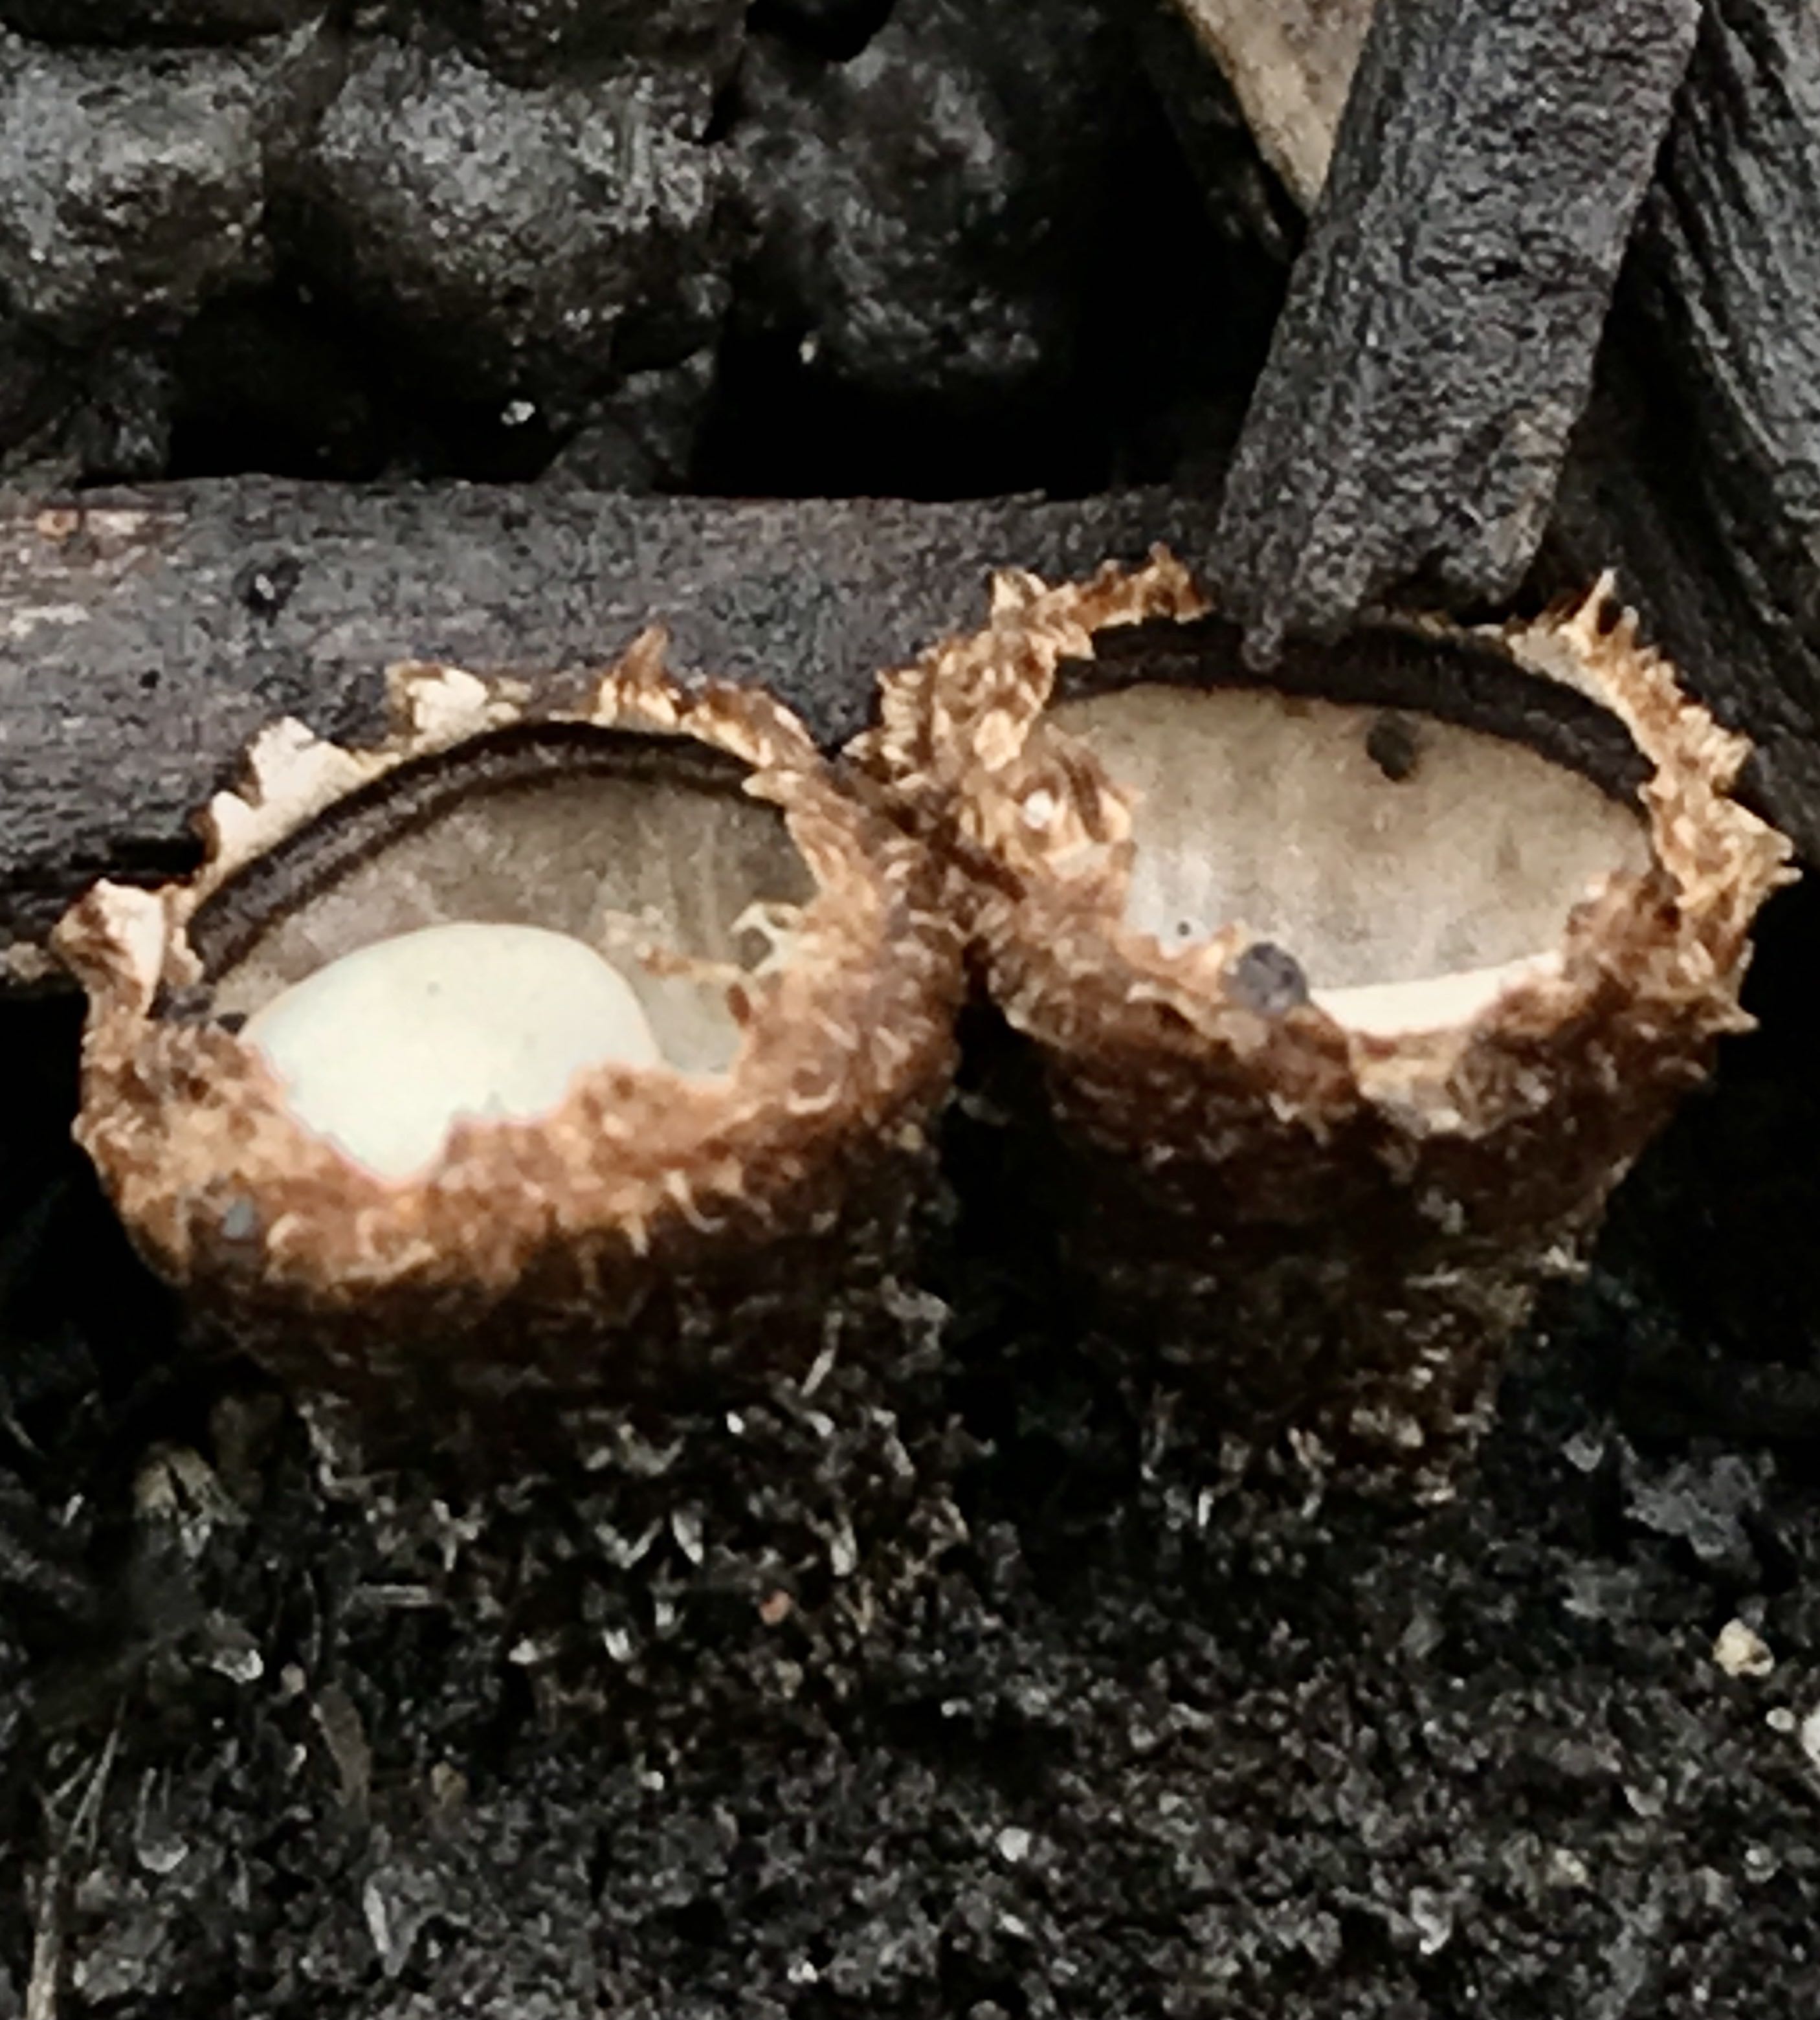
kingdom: Fungi
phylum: Basidiomycota
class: Agaricomycetes
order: Agaricales
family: Agaricaceae
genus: Cyathus
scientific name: Cyathus striatus
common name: stribet redesvamp
